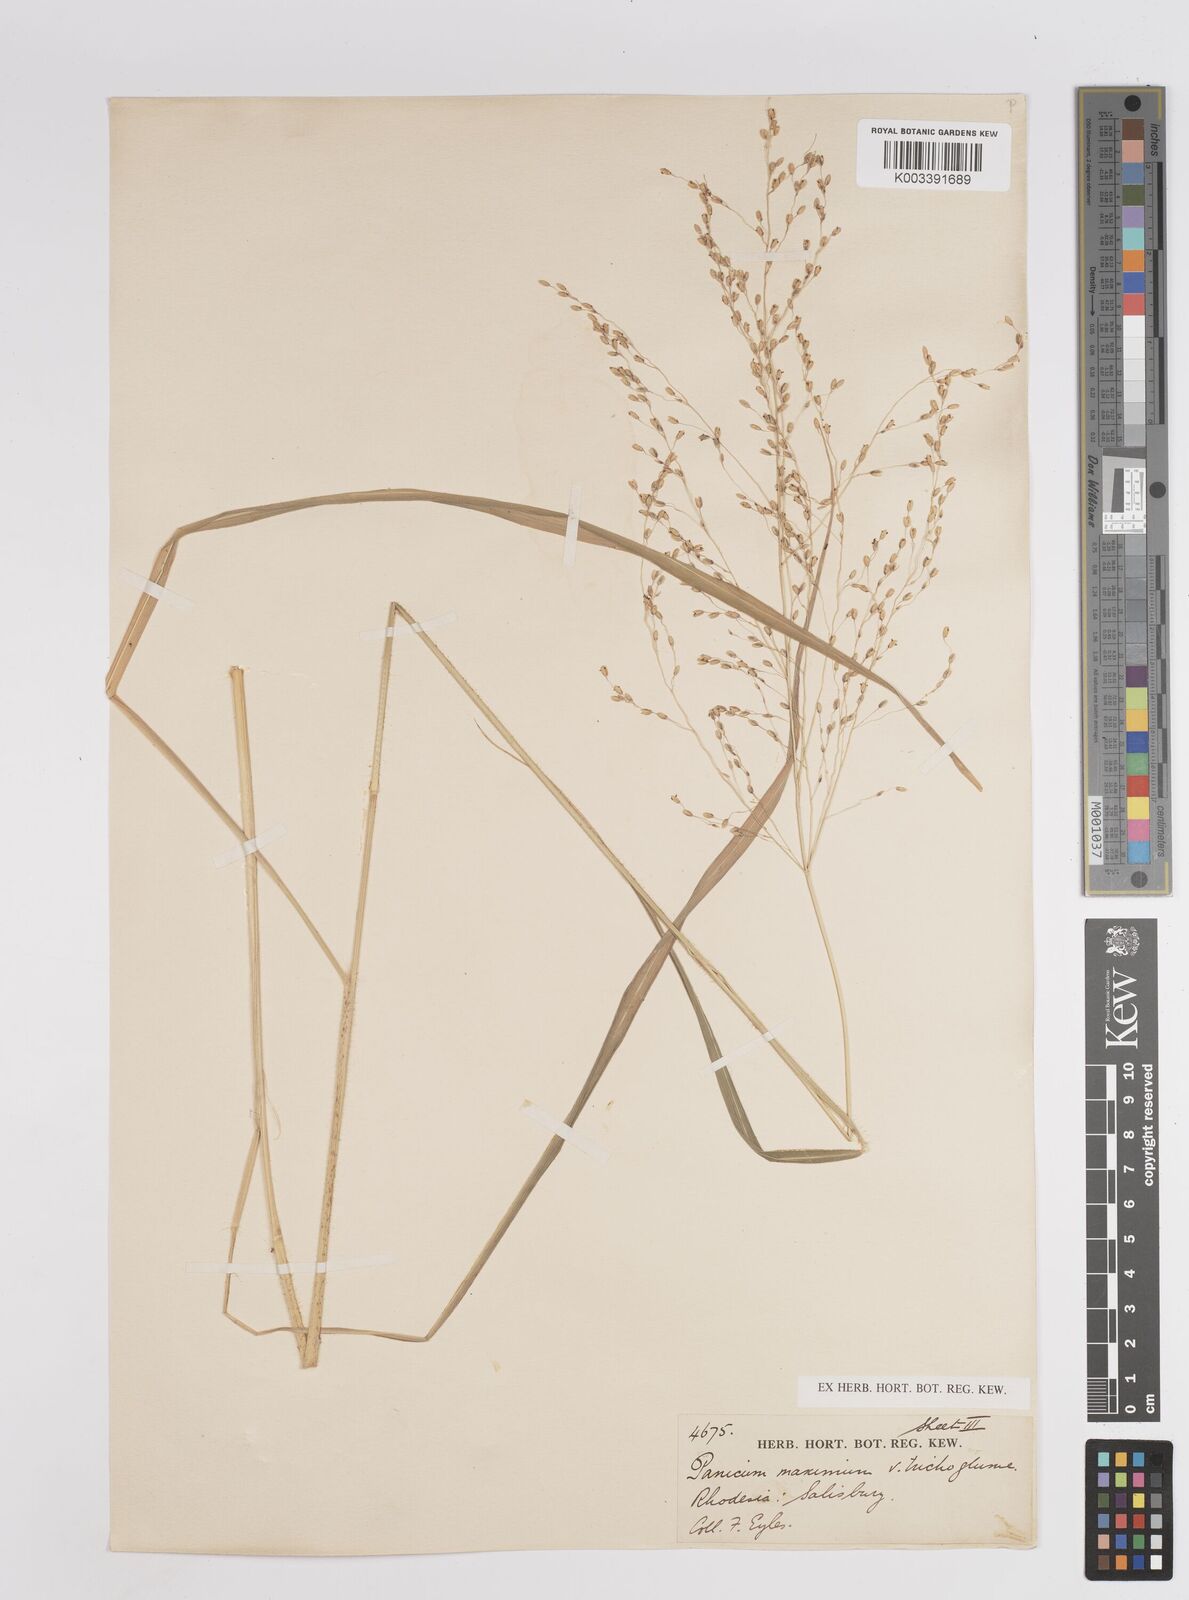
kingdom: Plantae
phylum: Tracheophyta
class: Liliopsida
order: Poales
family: Poaceae
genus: Megathyrsus
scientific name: Megathyrsus maximus
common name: Guineagrass
